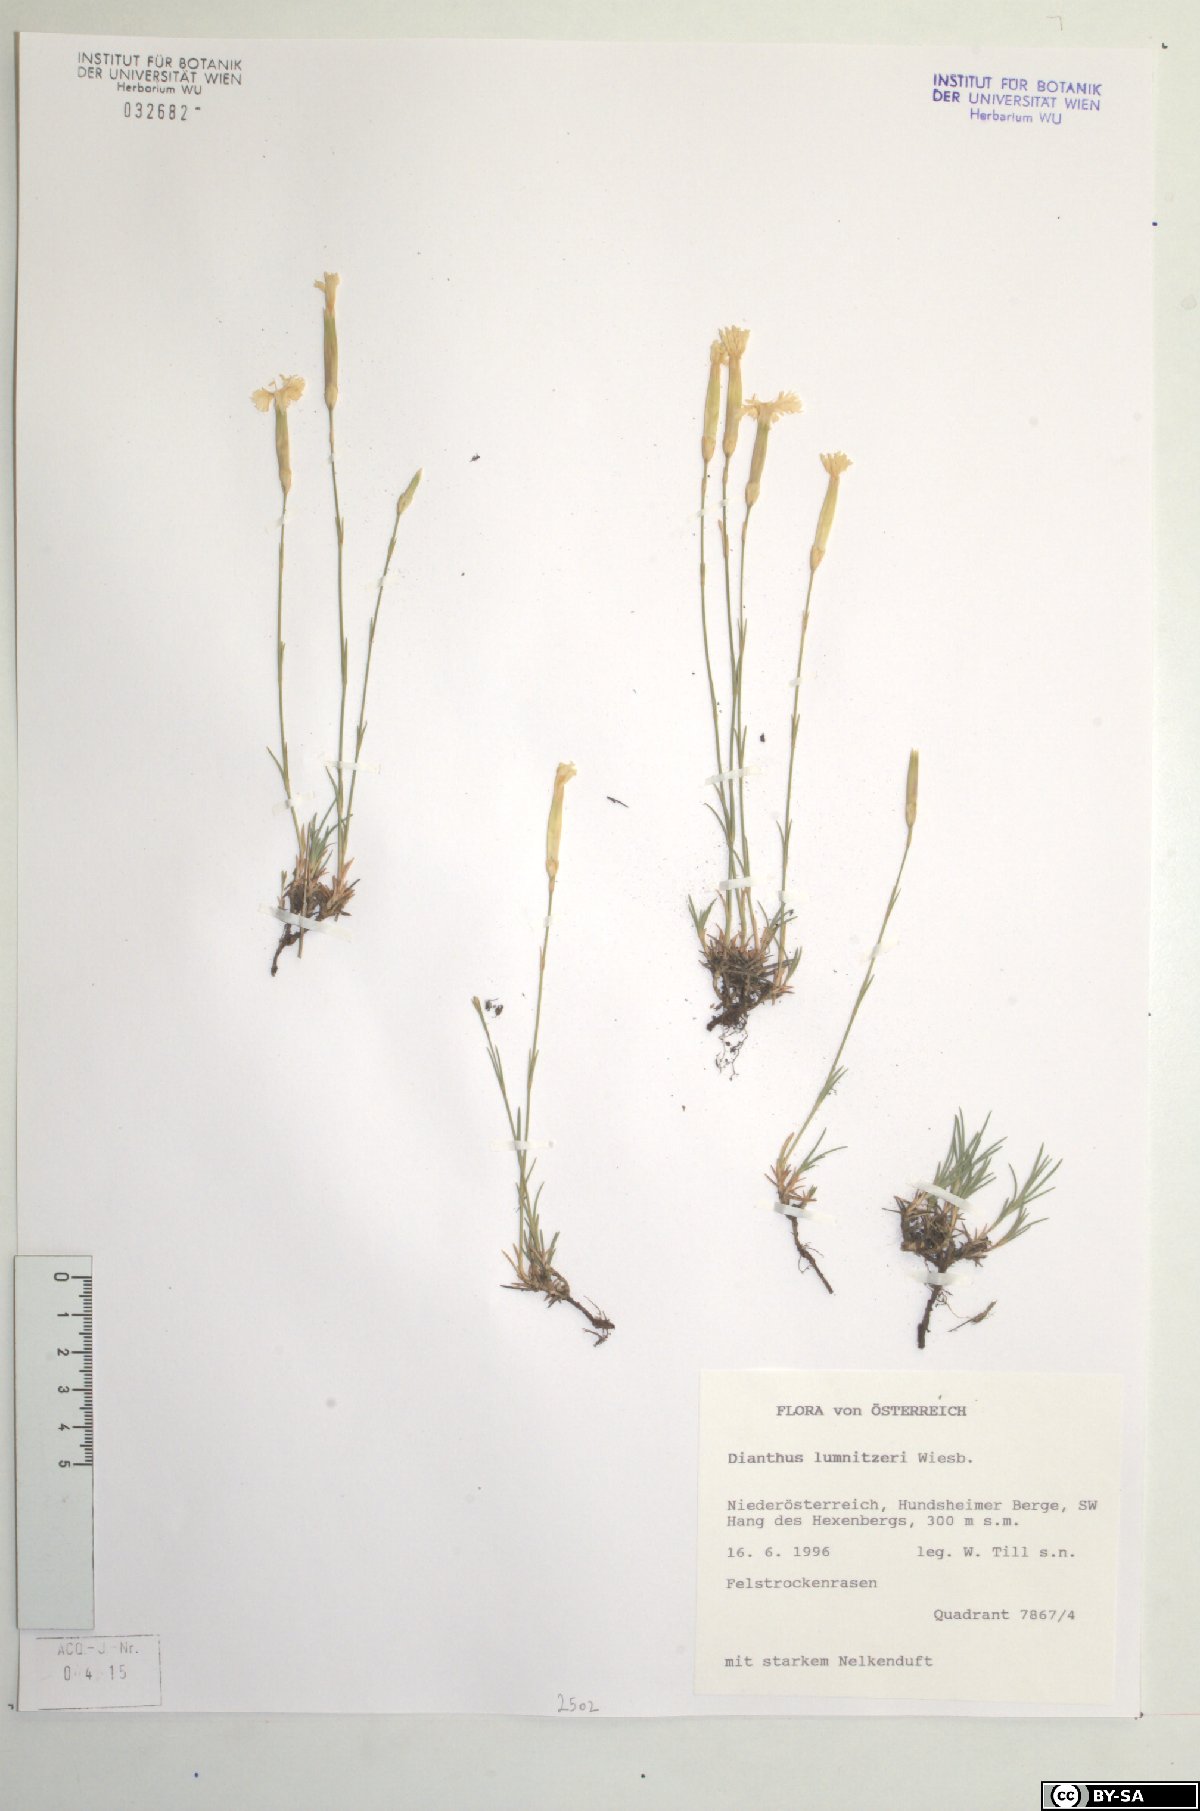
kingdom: Plantae
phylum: Tracheophyta
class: Magnoliopsida
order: Caryophyllales
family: Caryophyllaceae
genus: Dianthus
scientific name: Dianthus praecox
